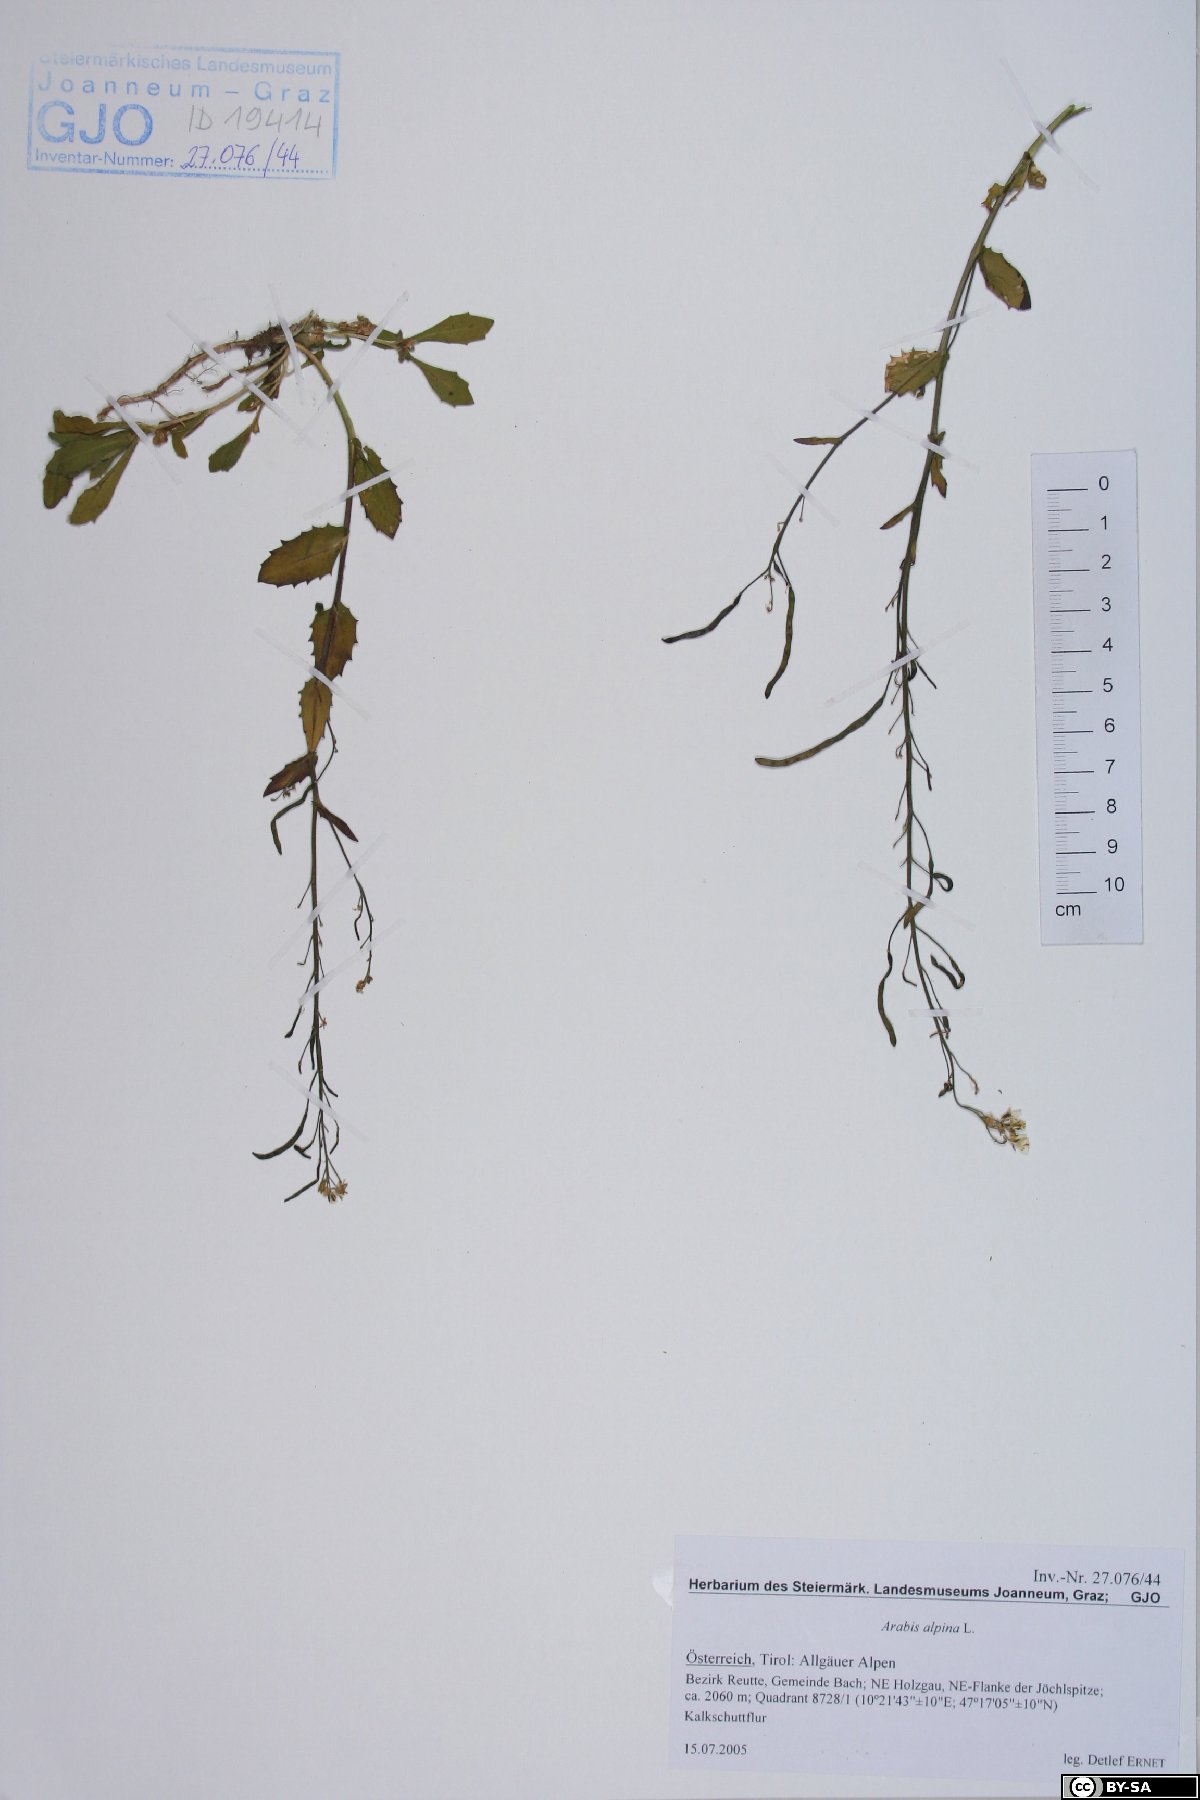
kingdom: Plantae
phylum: Tracheophyta
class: Magnoliopsida
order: Brassicales
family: Brassicaceae
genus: Arabis
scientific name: Arabis alpina
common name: Alpine rock-cress
